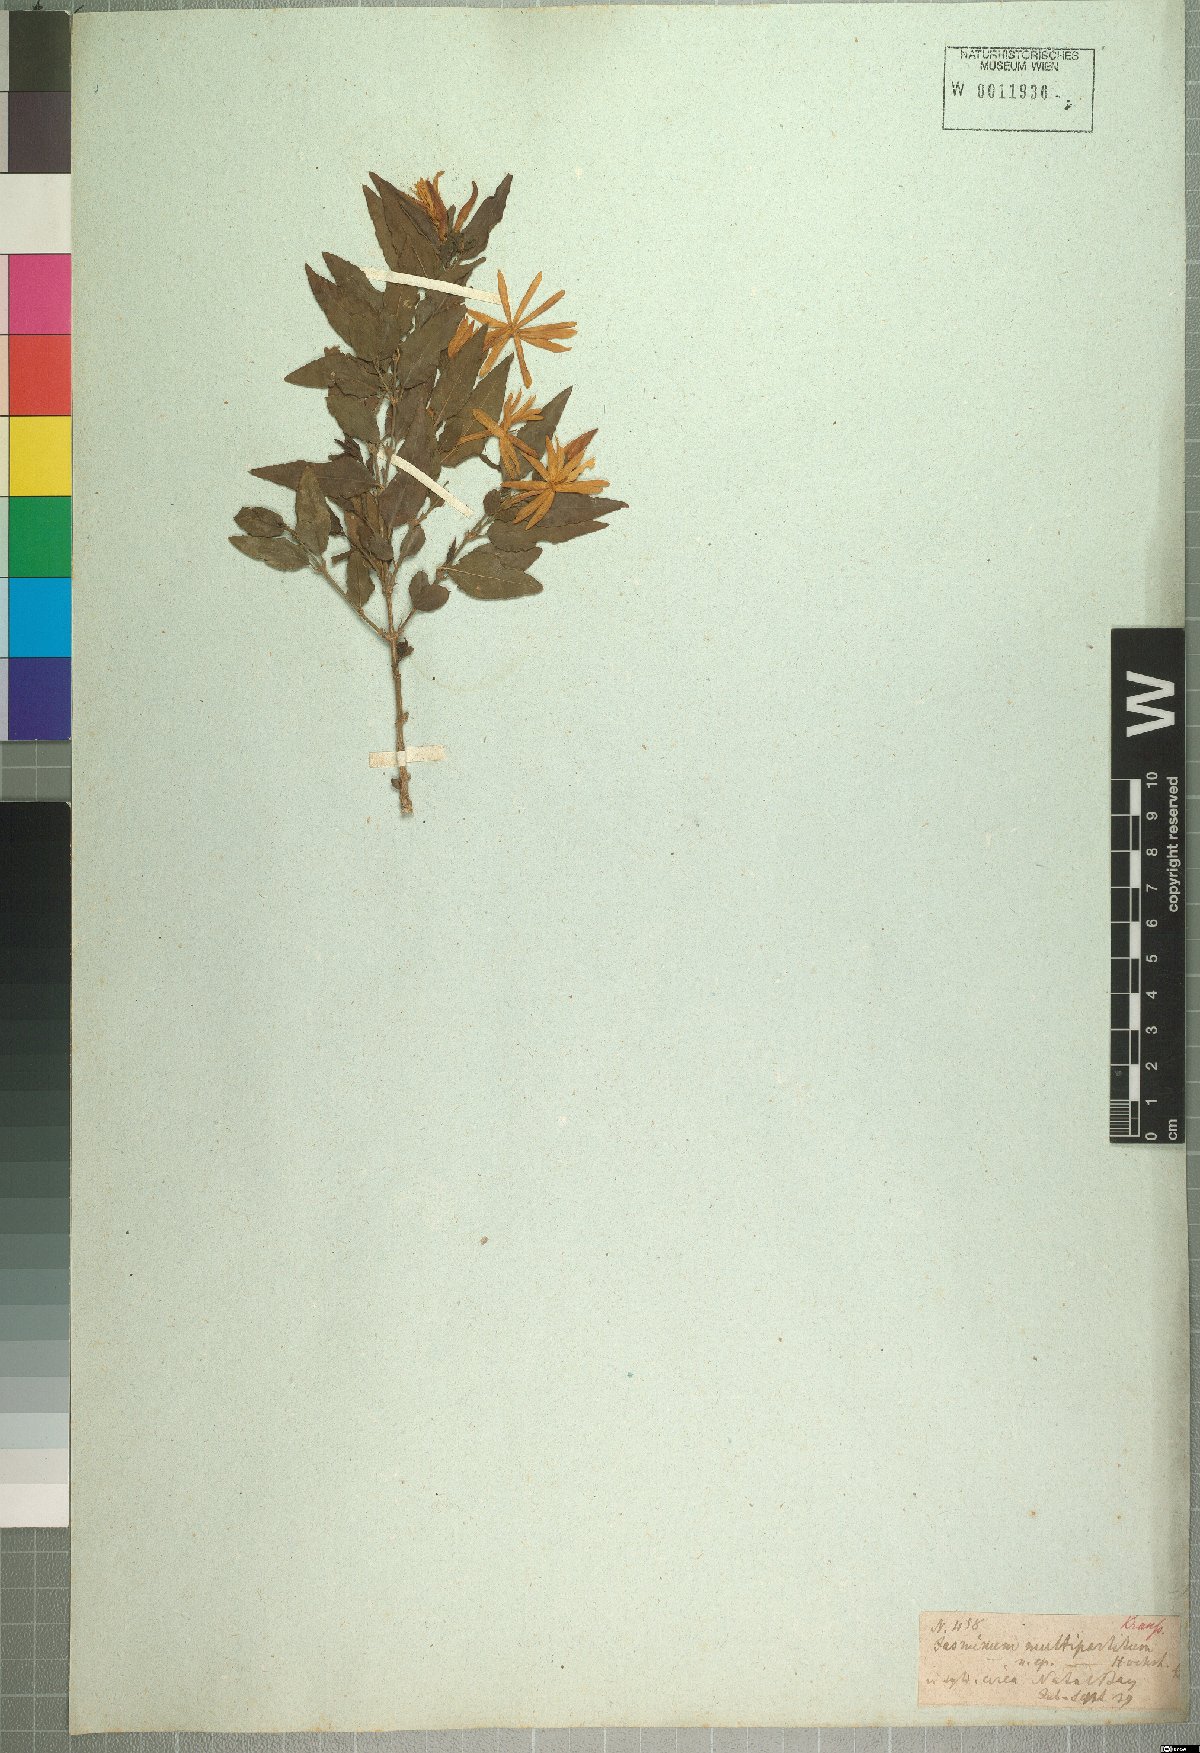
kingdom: Plantae
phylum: Tracheophyta
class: Magnoliopsida
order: Lamiales
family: Oleaceae
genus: Jasminum
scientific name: Jasminum multipartitum
